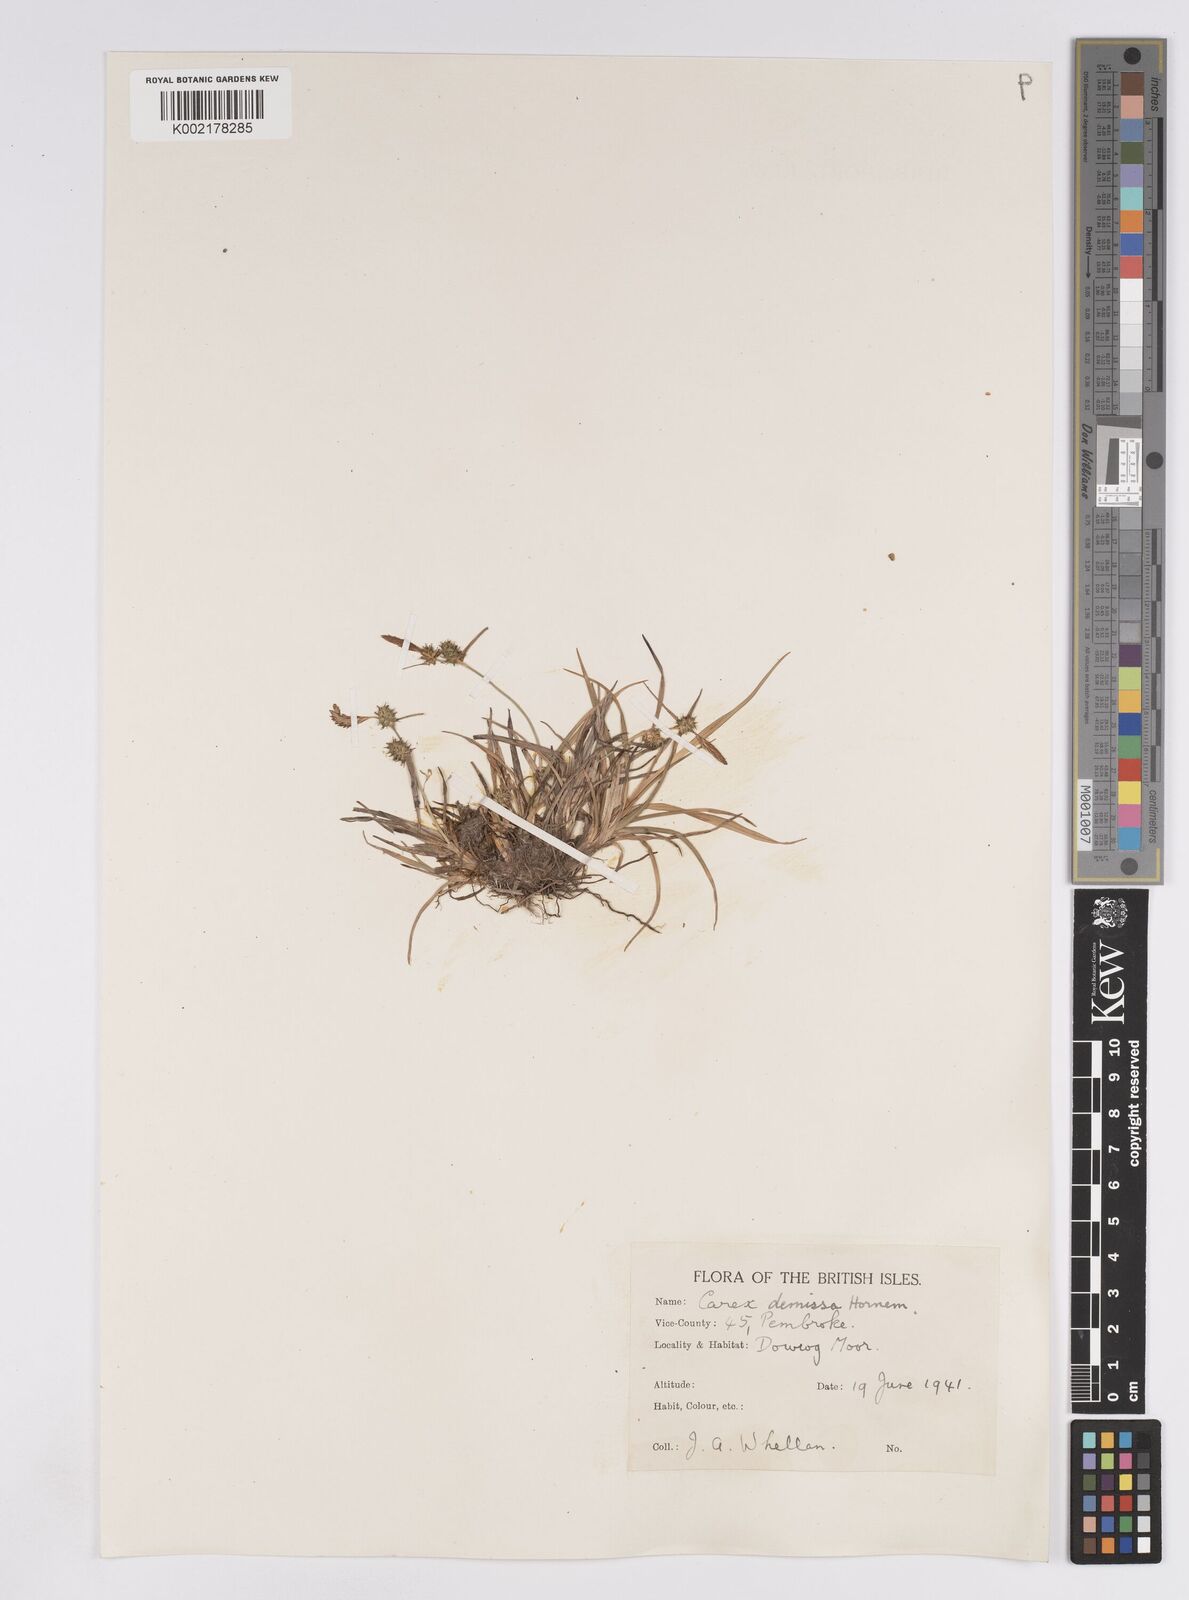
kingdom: Plantae
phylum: Tracheophyta
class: Liliopsida
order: Poales
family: Cyperaceae
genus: Carex
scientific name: Carex demissa
